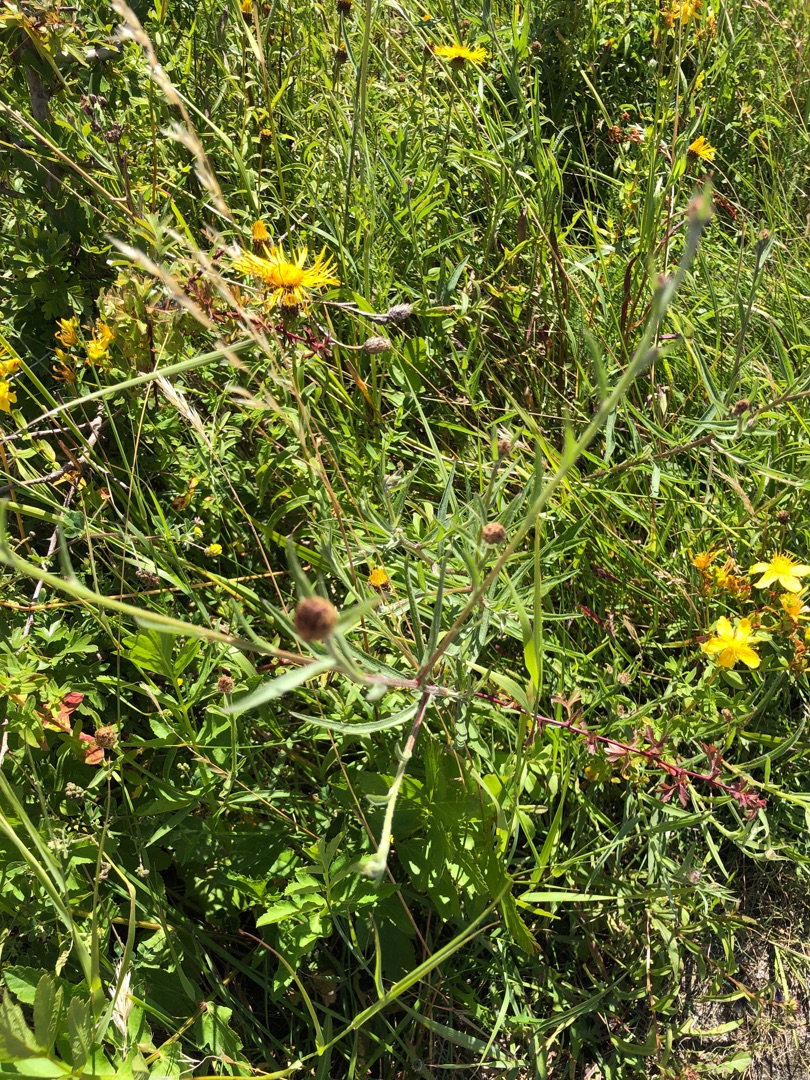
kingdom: Plantae
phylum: Tracheophyta
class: Magnoliopsida
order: Asterales
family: Asteraceae
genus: Centaurea
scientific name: Centaurea jacea
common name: Smalbladet knopurt
